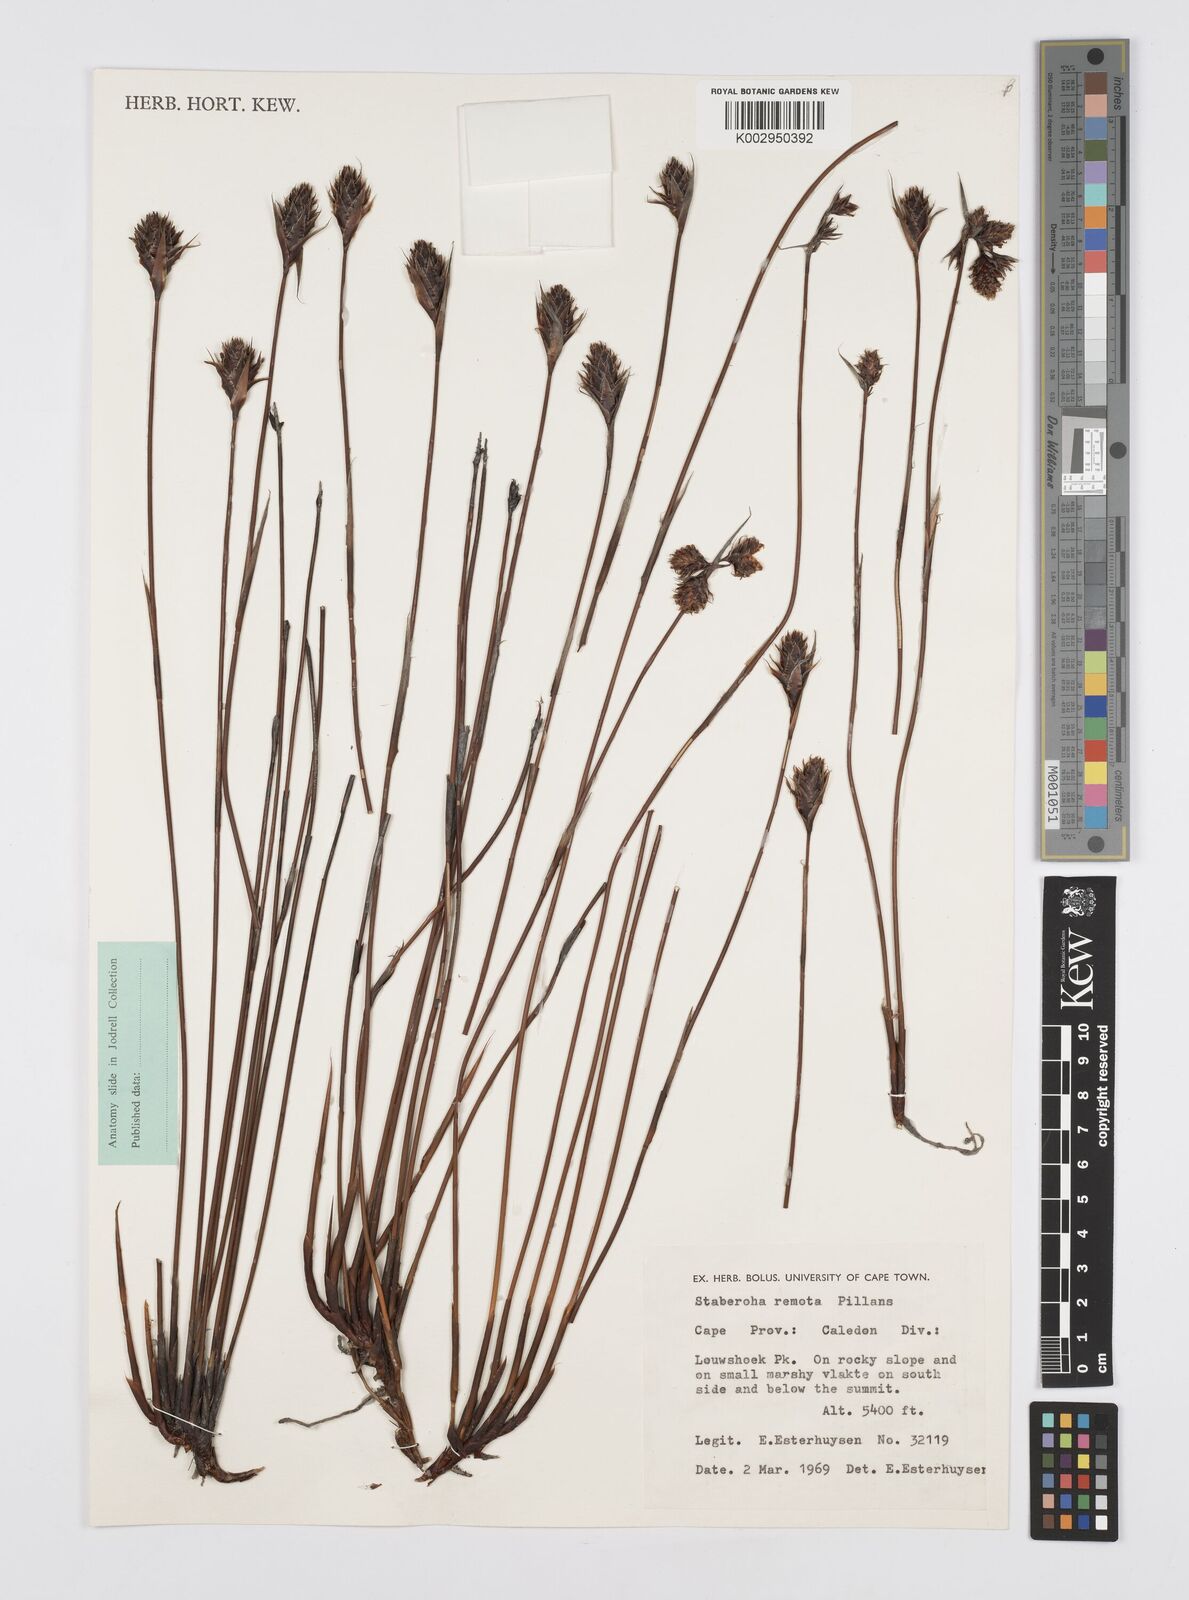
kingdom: Plantae
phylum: Tracheophyta
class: Liliopsida
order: Poales
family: Restionaceae
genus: Staberoha
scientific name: Staberoha remota
